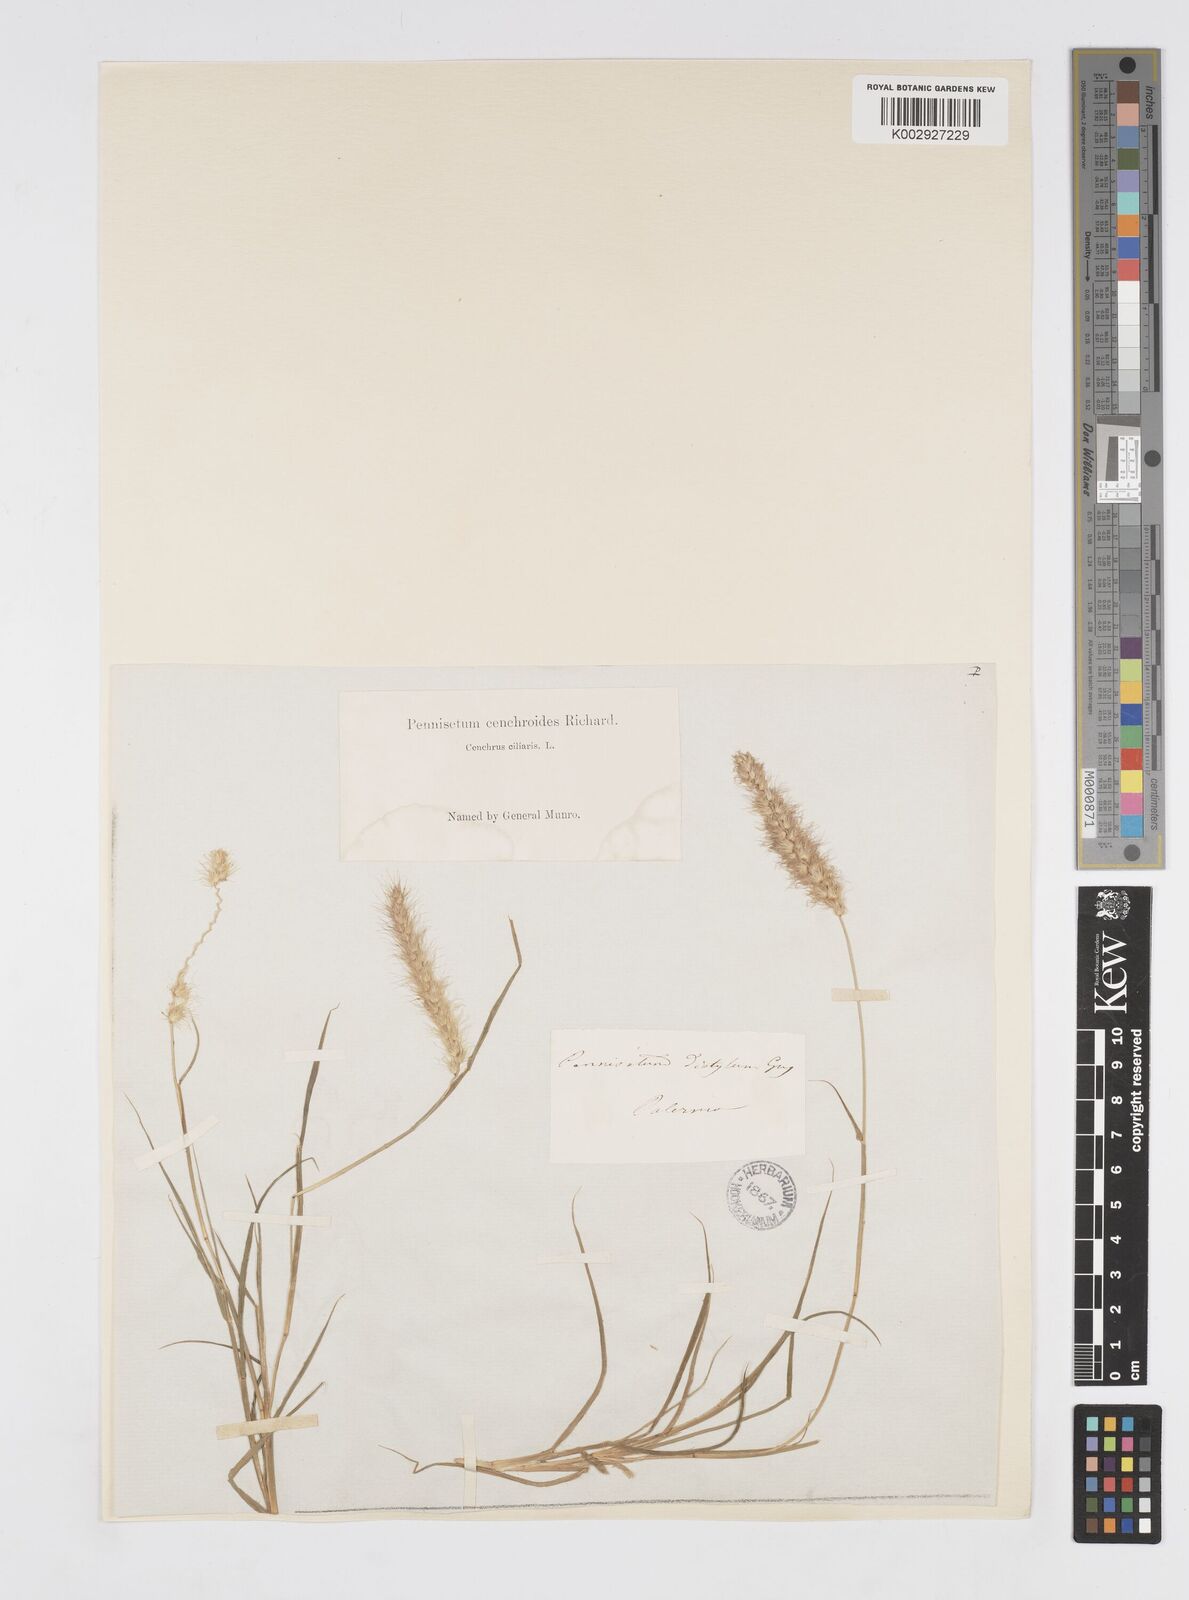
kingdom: Plantae
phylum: Tracheophyta
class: Liliopsida
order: Poales
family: Poaceae
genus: Cenchrus
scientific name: Cenchrus ciliaris
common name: Buffelgrass
